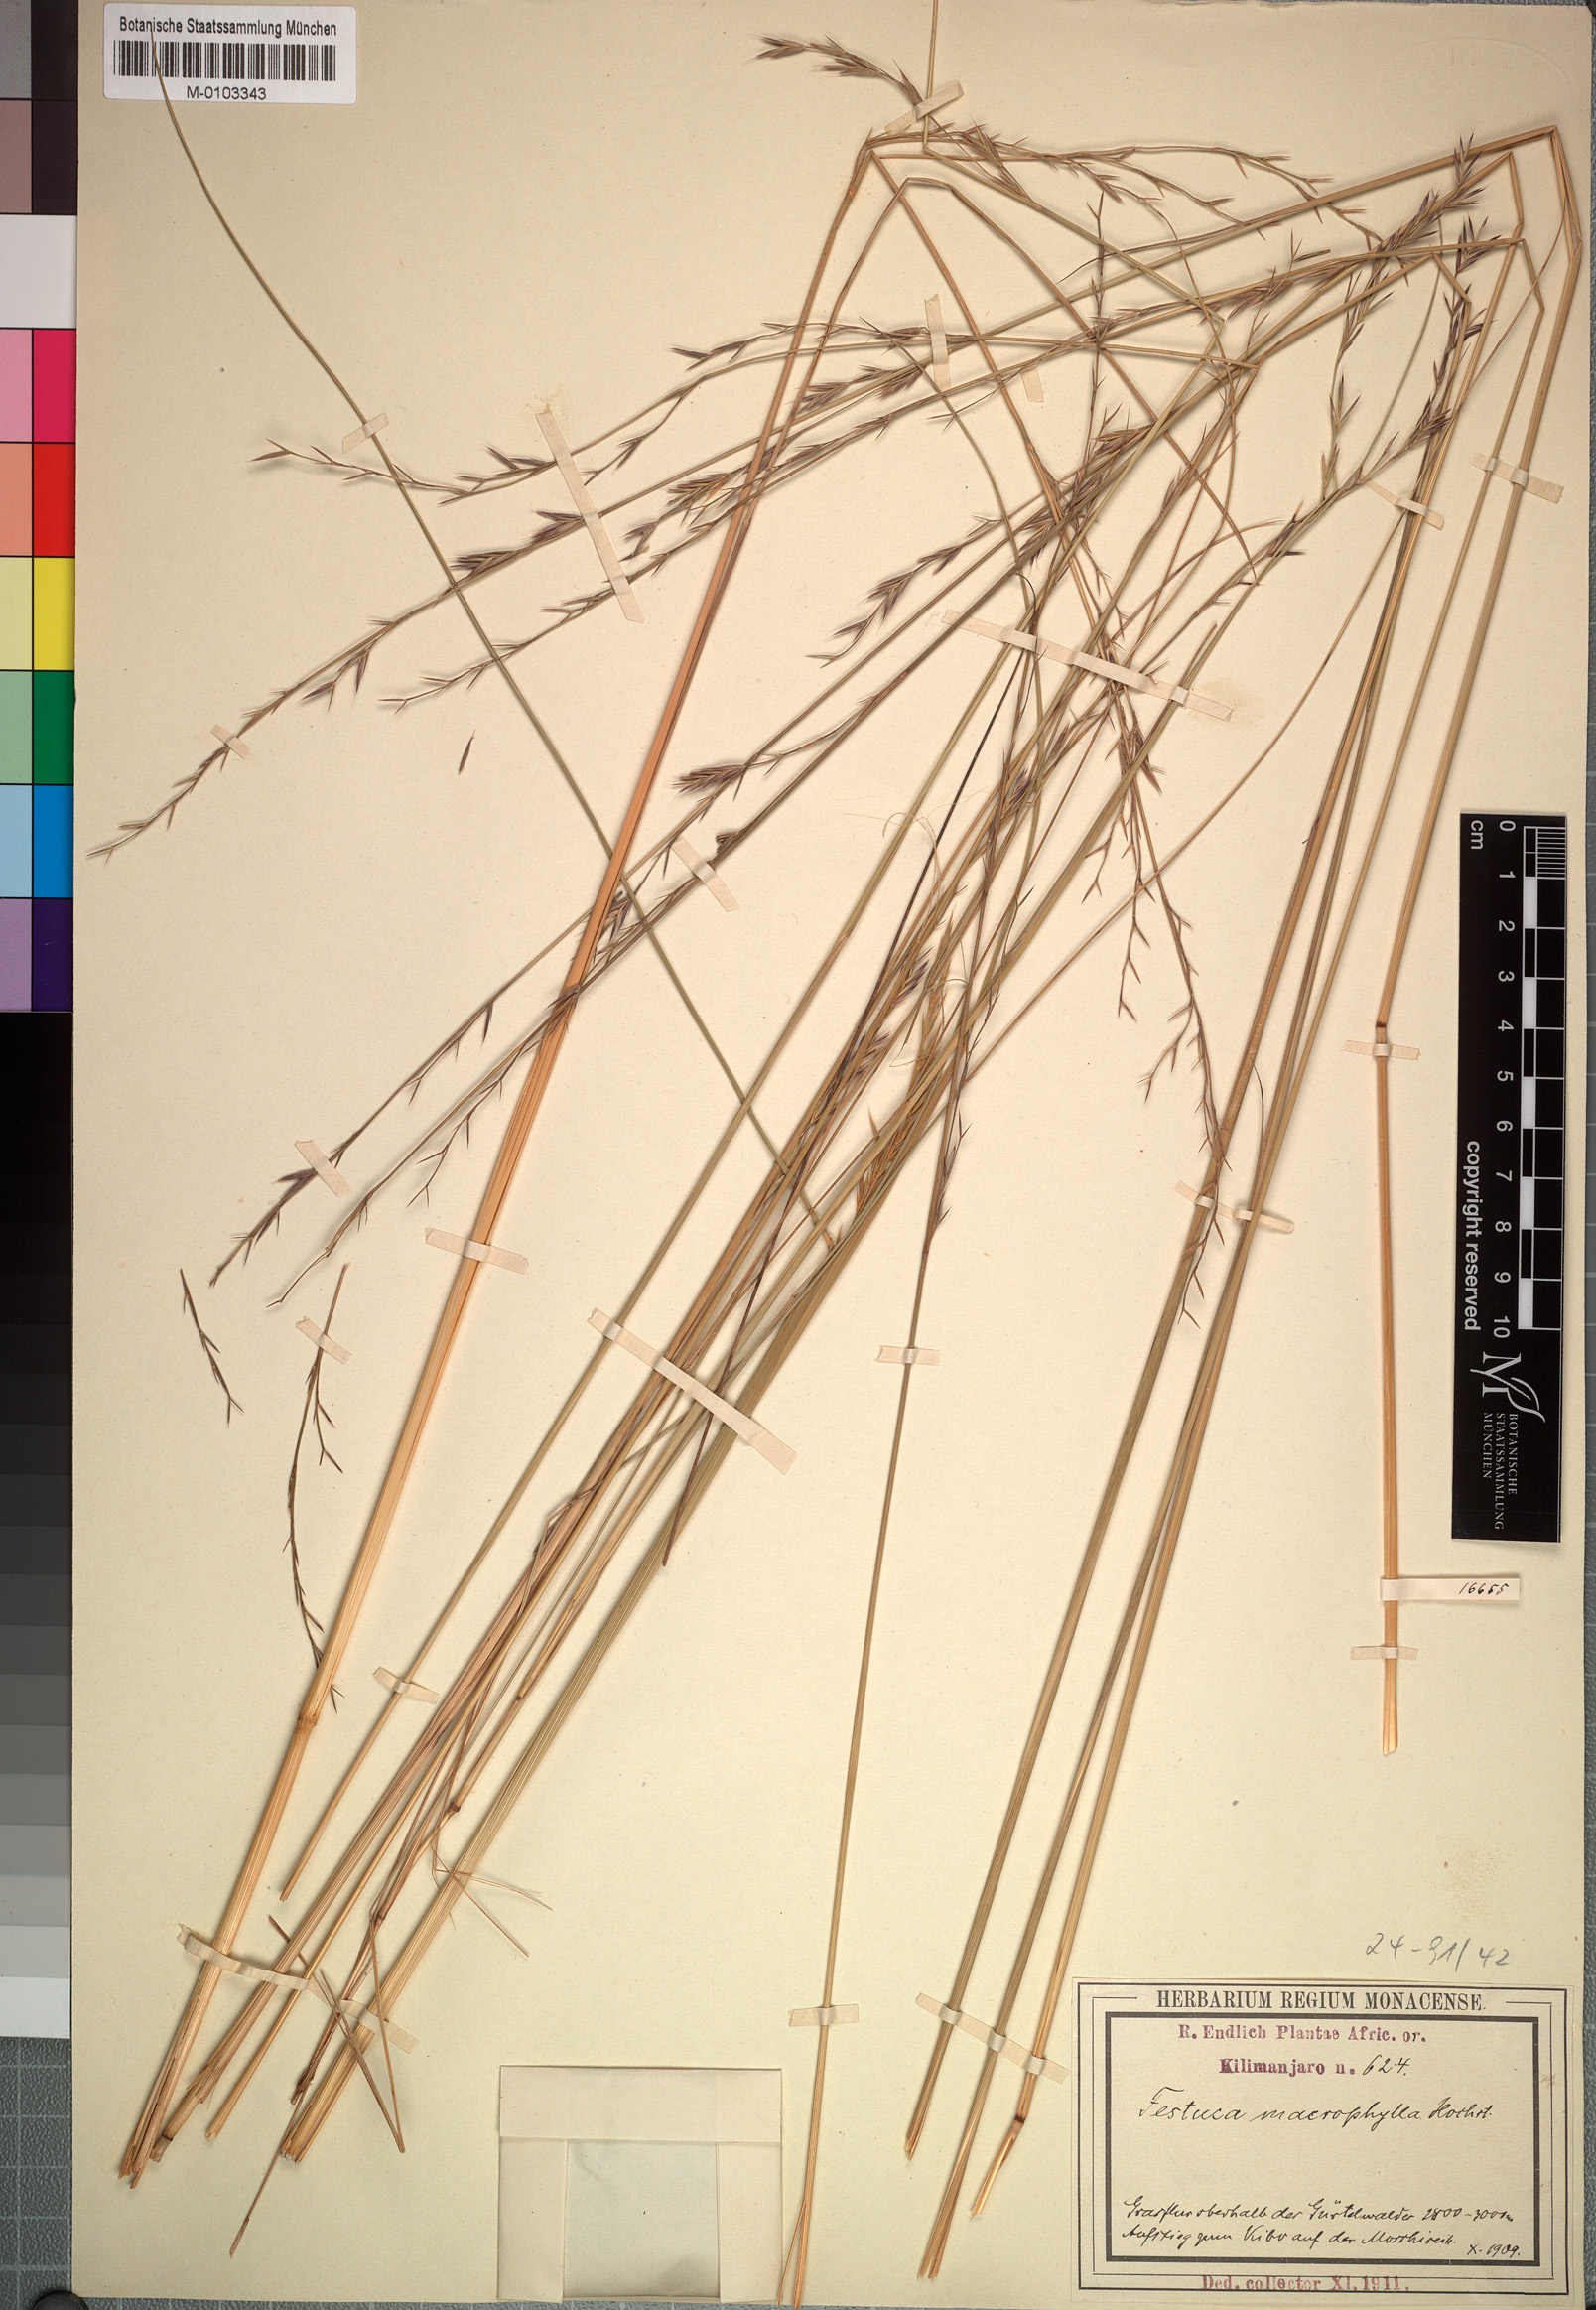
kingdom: Plantae
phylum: Tracheophyta
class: Liliopsida
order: Poales
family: Poaceae
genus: Festuca
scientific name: Festuca macrophylla
